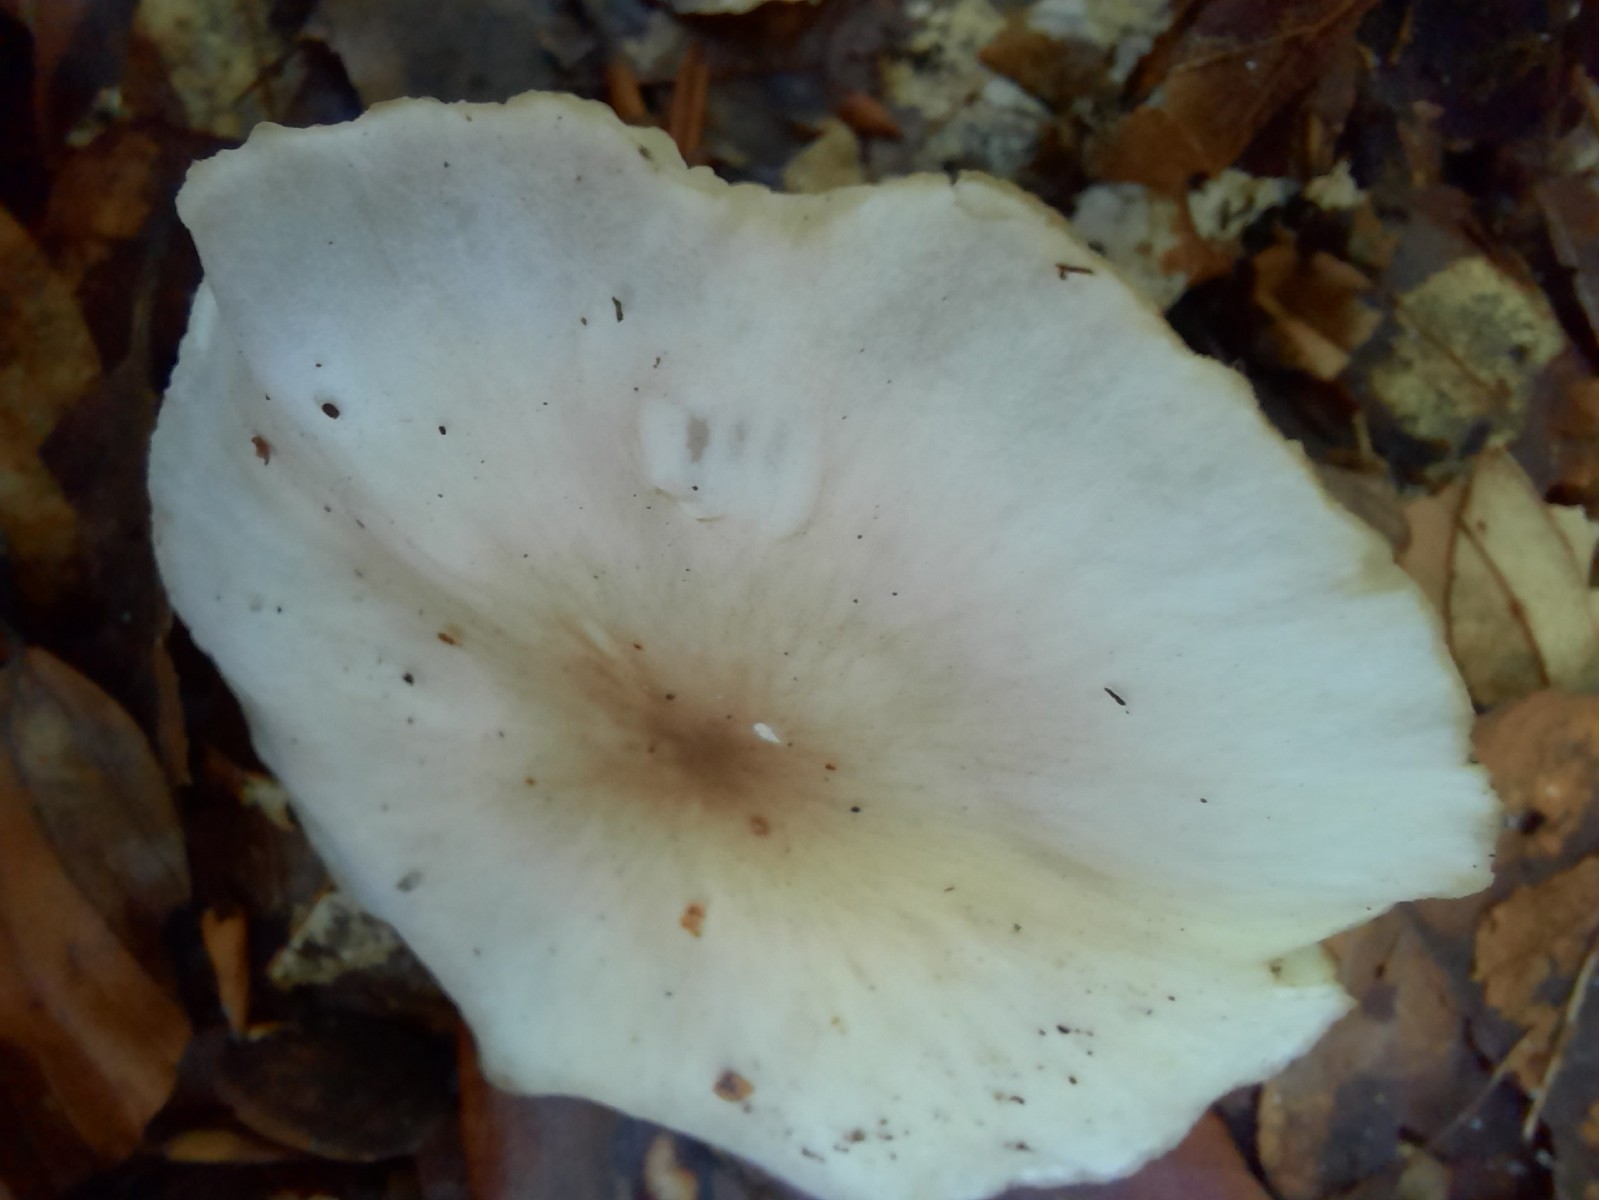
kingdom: Fungi
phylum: Basidiomycota
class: Agaricomycetes
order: Agaricales
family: Lyophyllaceae
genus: Lyophyllum
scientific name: Lyophyllum deliberatum
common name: gråbrun gråblad
